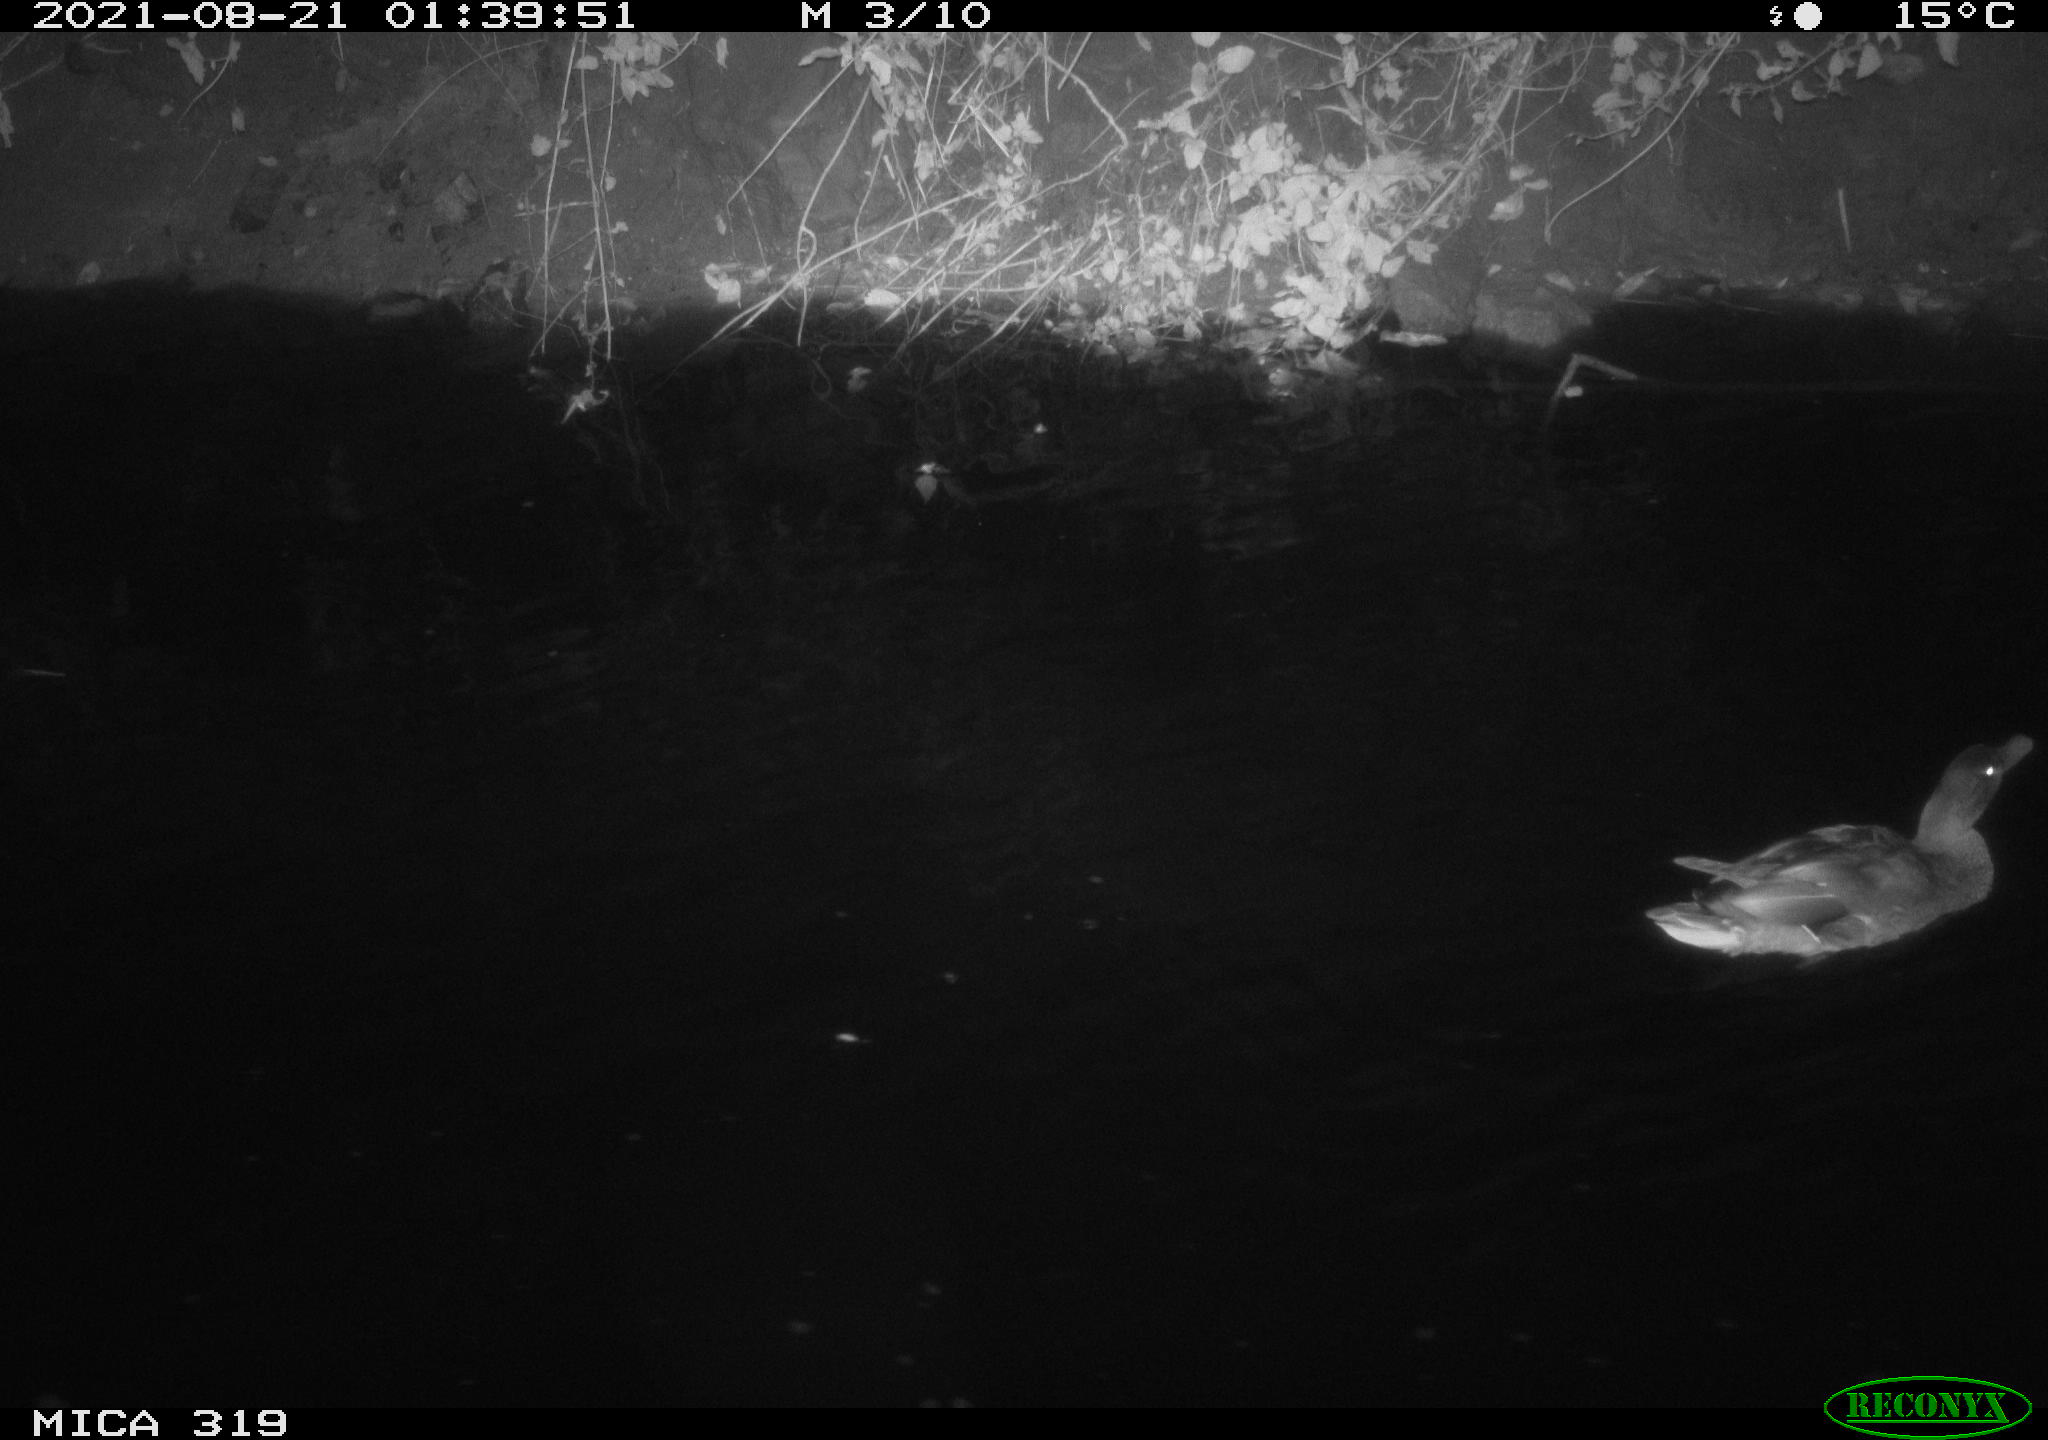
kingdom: Animalia
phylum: Chordata
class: Aves
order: Anseriformes
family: Anatidae
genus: Anas
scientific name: Anas platyrhynchos
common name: Mallard
